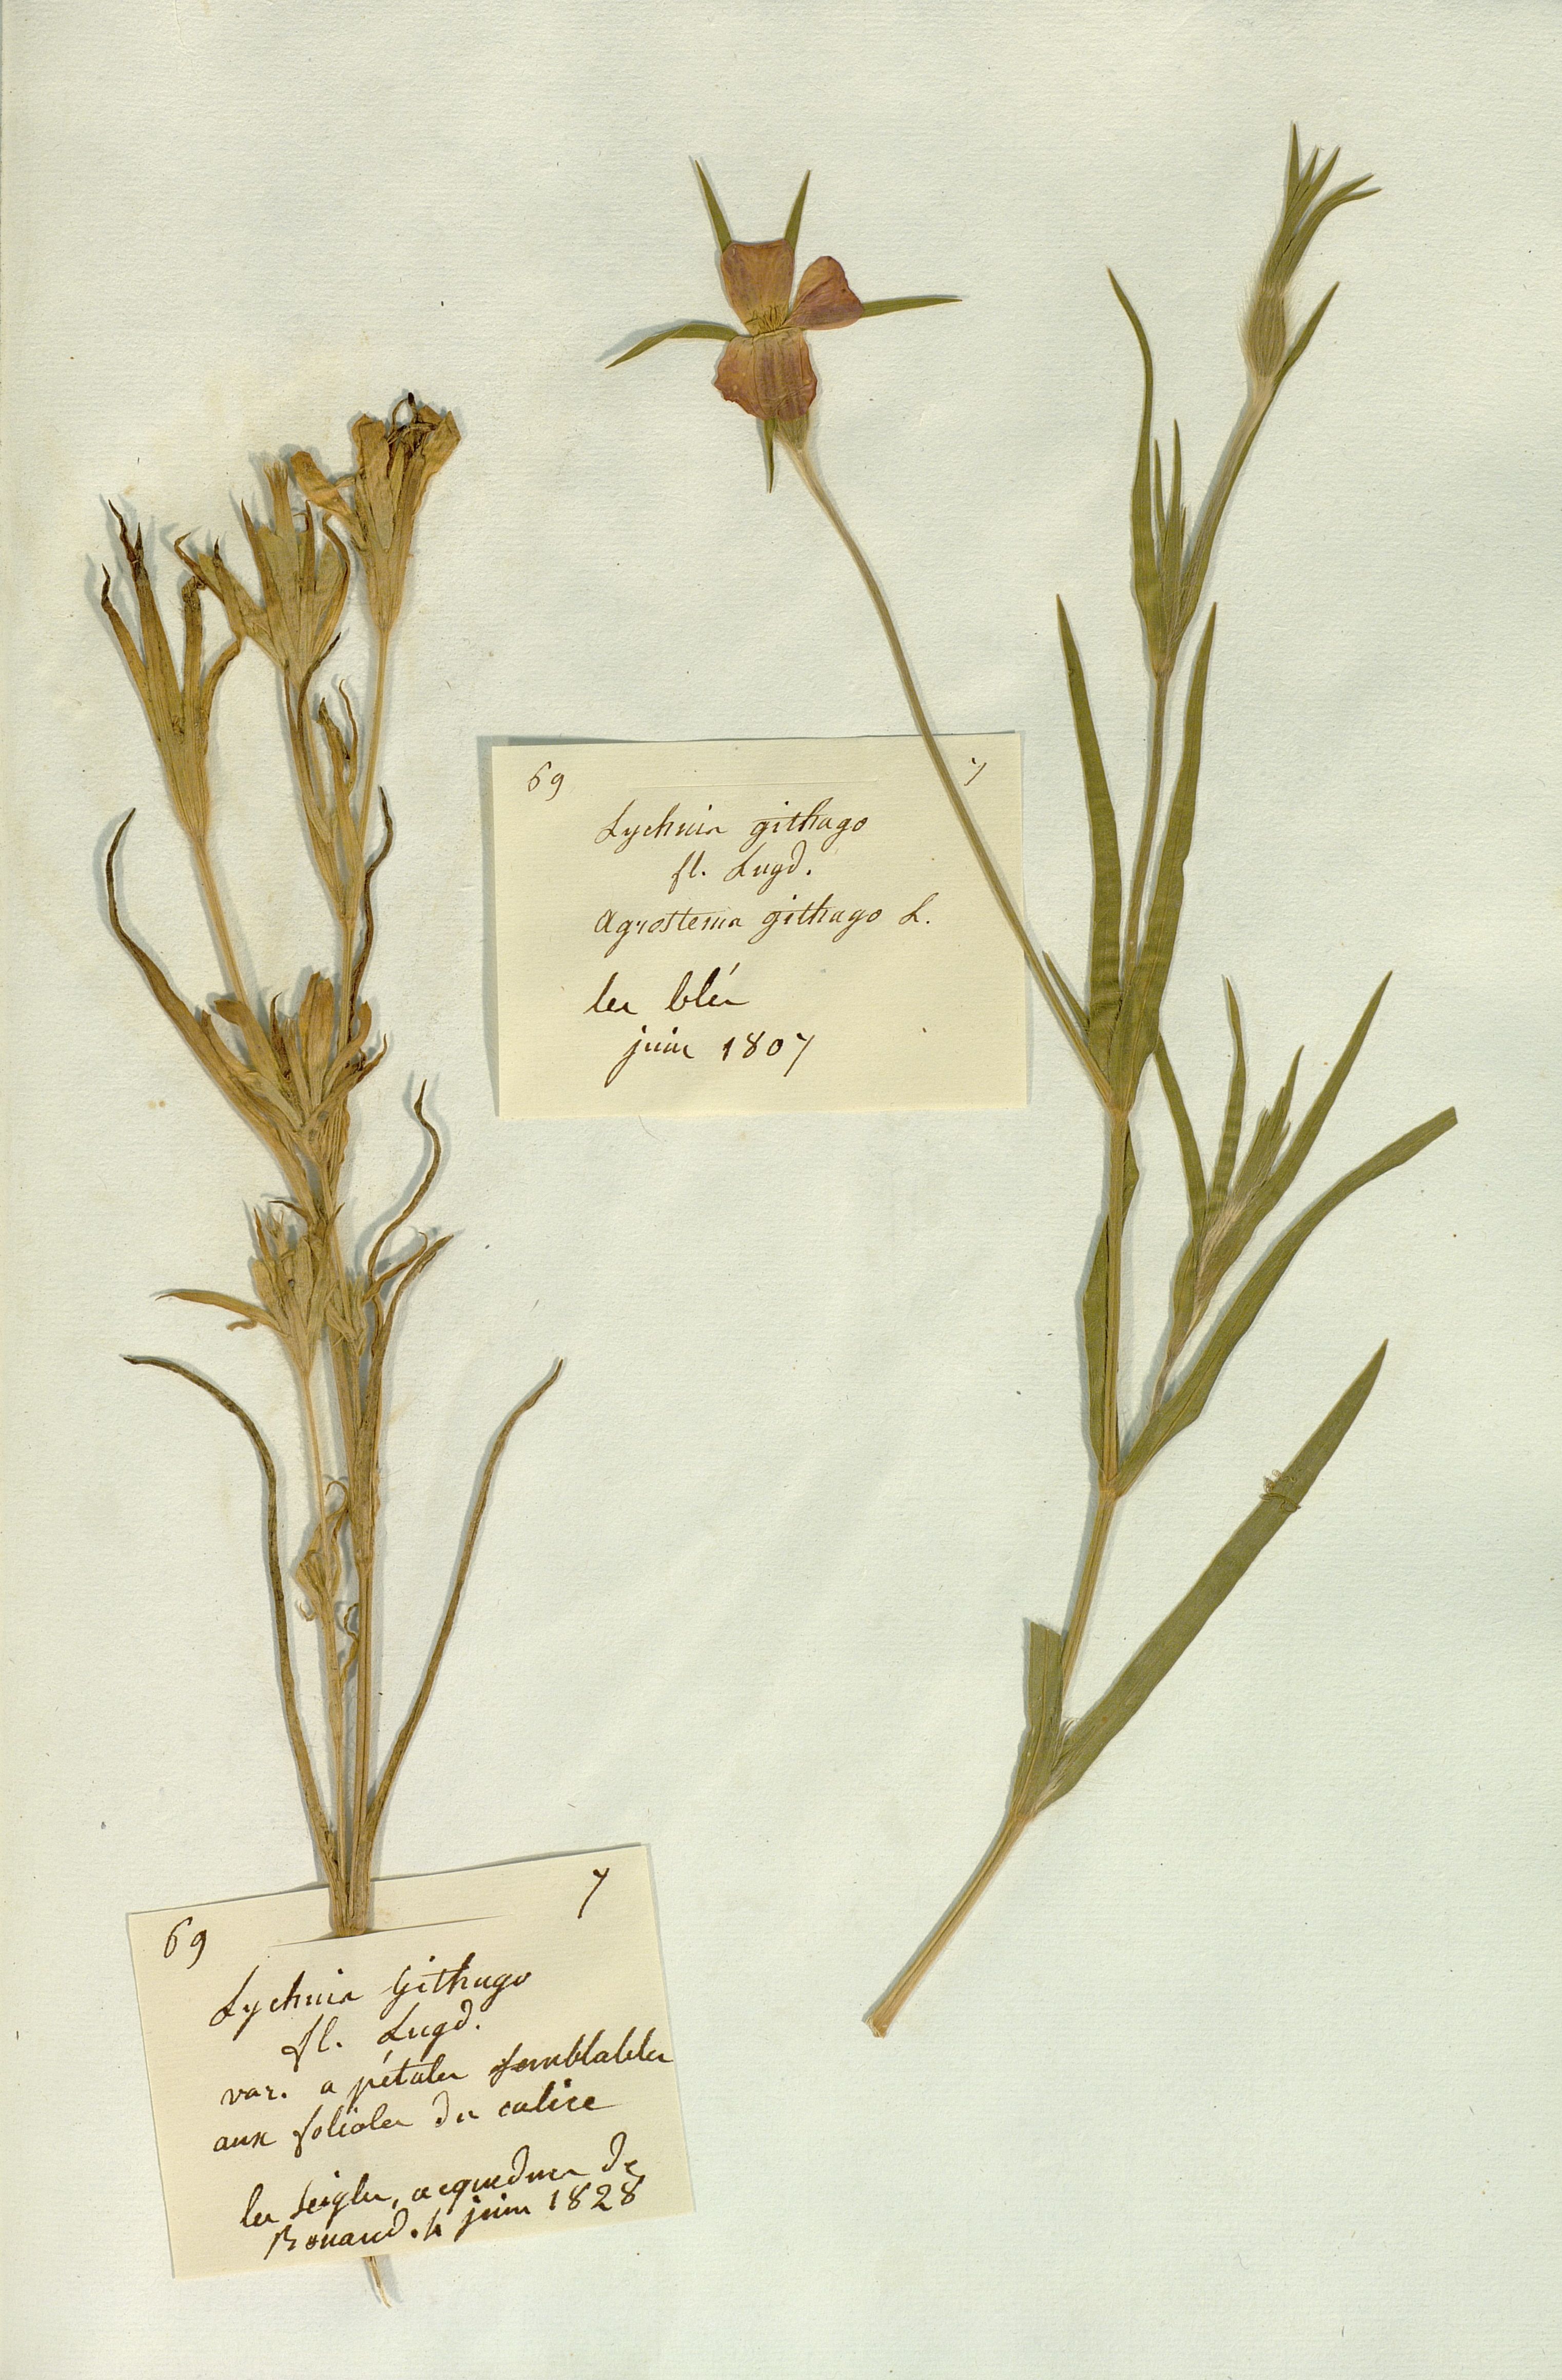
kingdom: Plantae
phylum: Tracheophyta
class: Magnoliopsida
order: Caryophyllales
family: Caryophyllaceae
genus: Agrostemma
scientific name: Agrostemma githago
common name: Common corncockle
